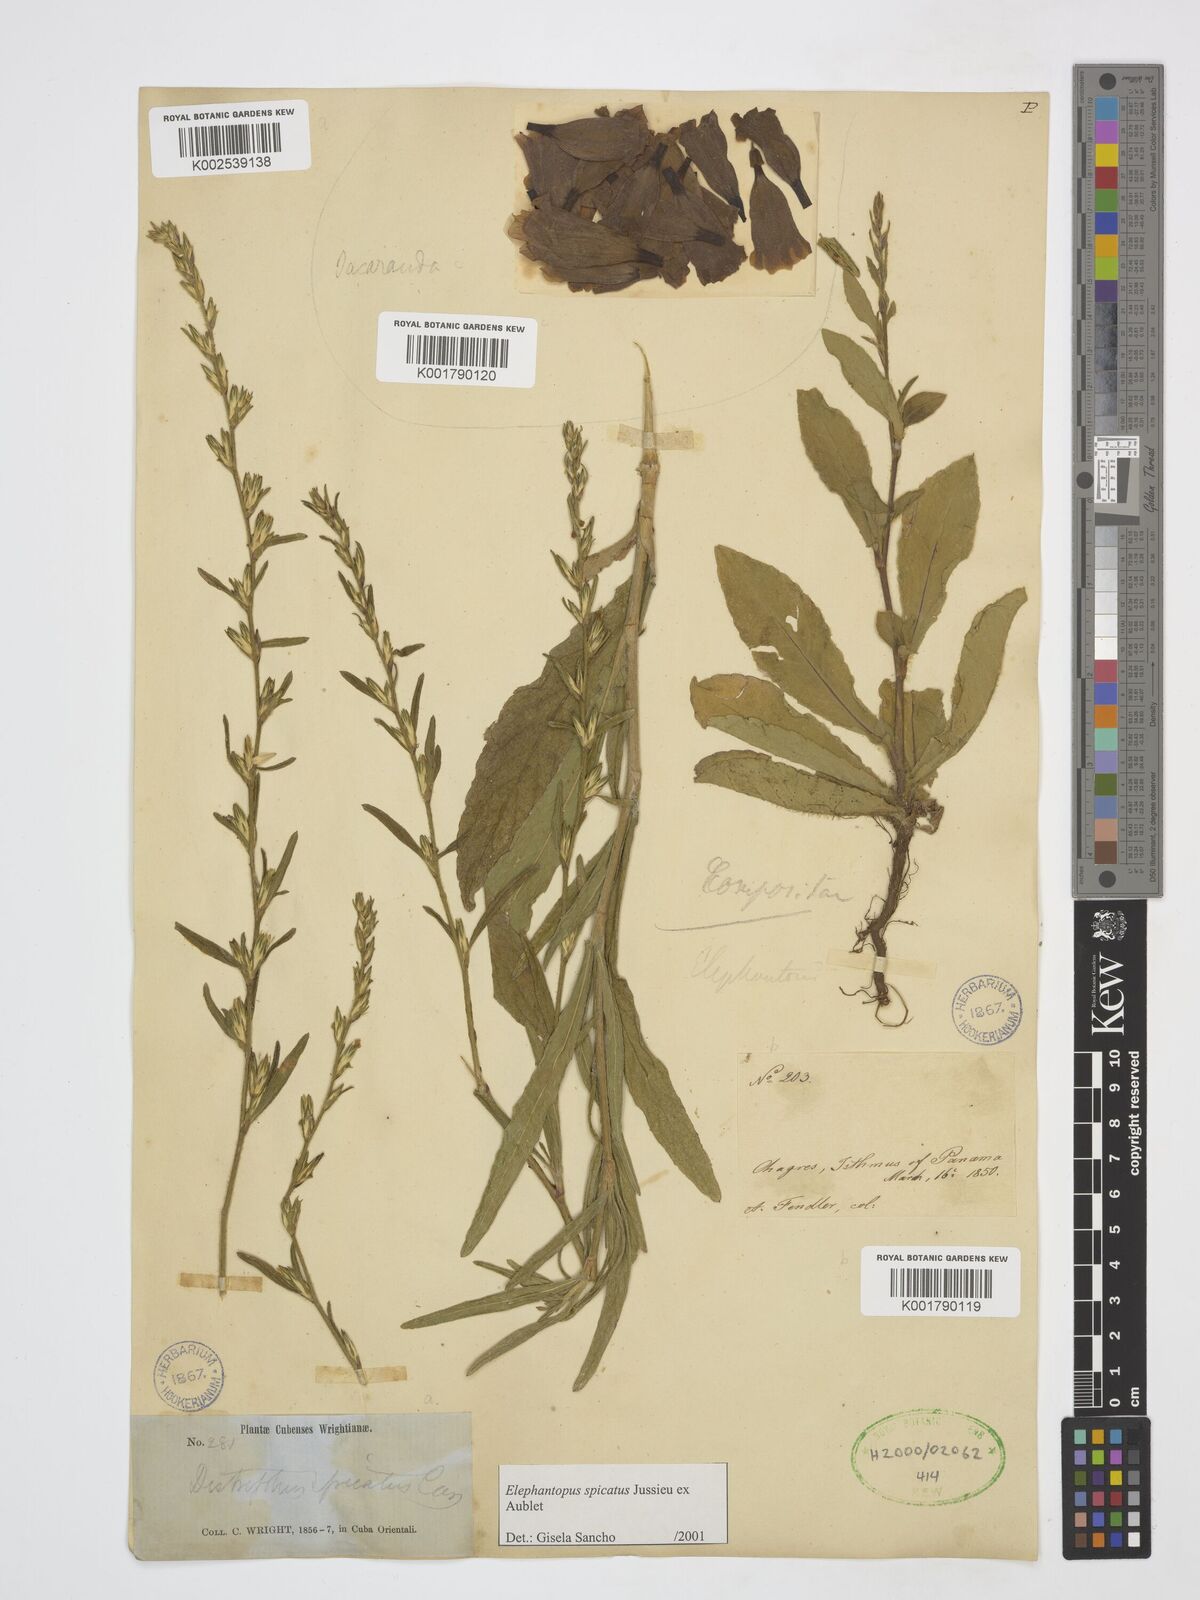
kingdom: Plantae
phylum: Tracheophyta
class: Magnoliopsida
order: Lamiales
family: Bignoniaceae
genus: Jacaranda
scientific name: Jacaranda
